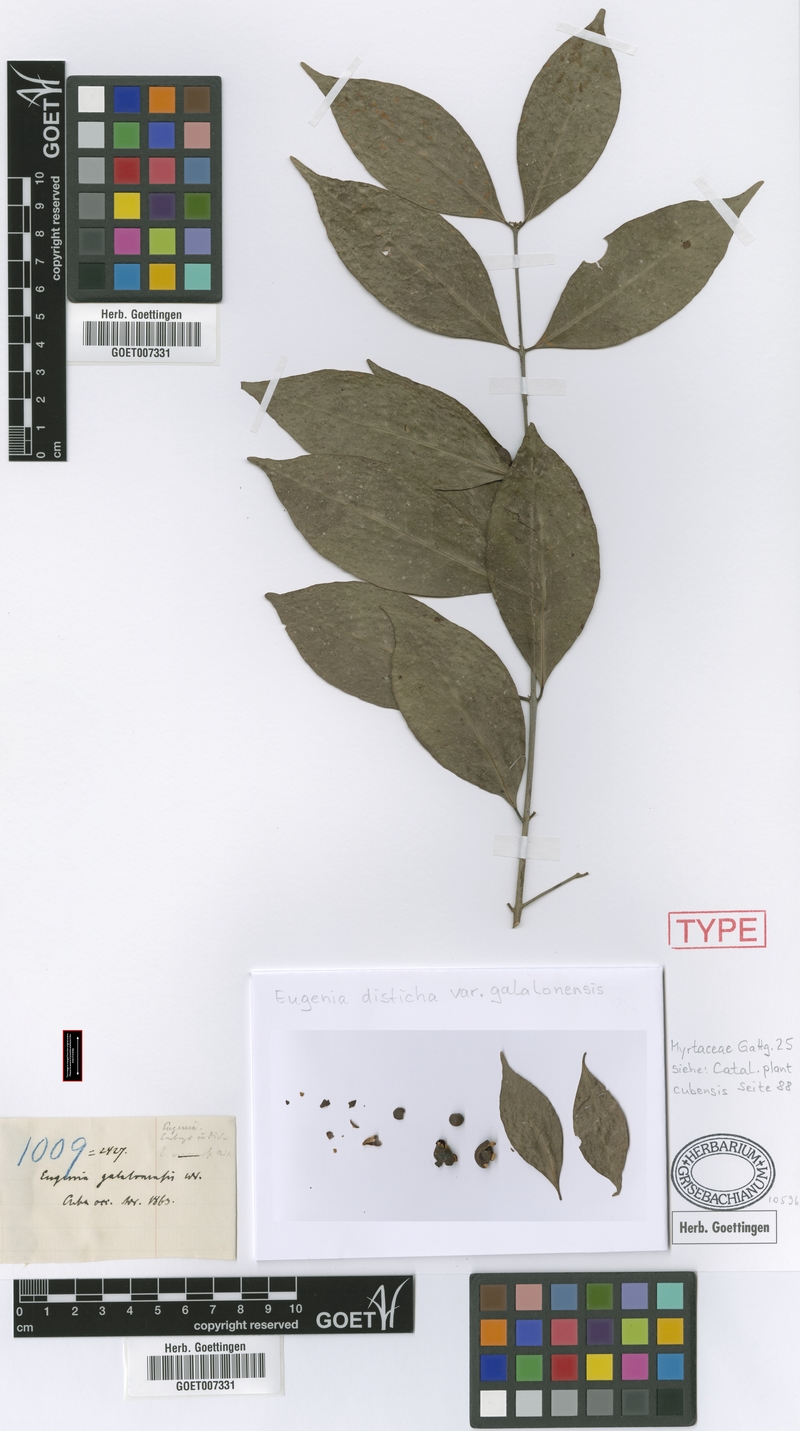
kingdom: Plantae
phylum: Tracheophyta
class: Magnoliopsida
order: Myrtales
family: Myrtaceae
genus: Eugenia
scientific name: Eugenia galalonensis
